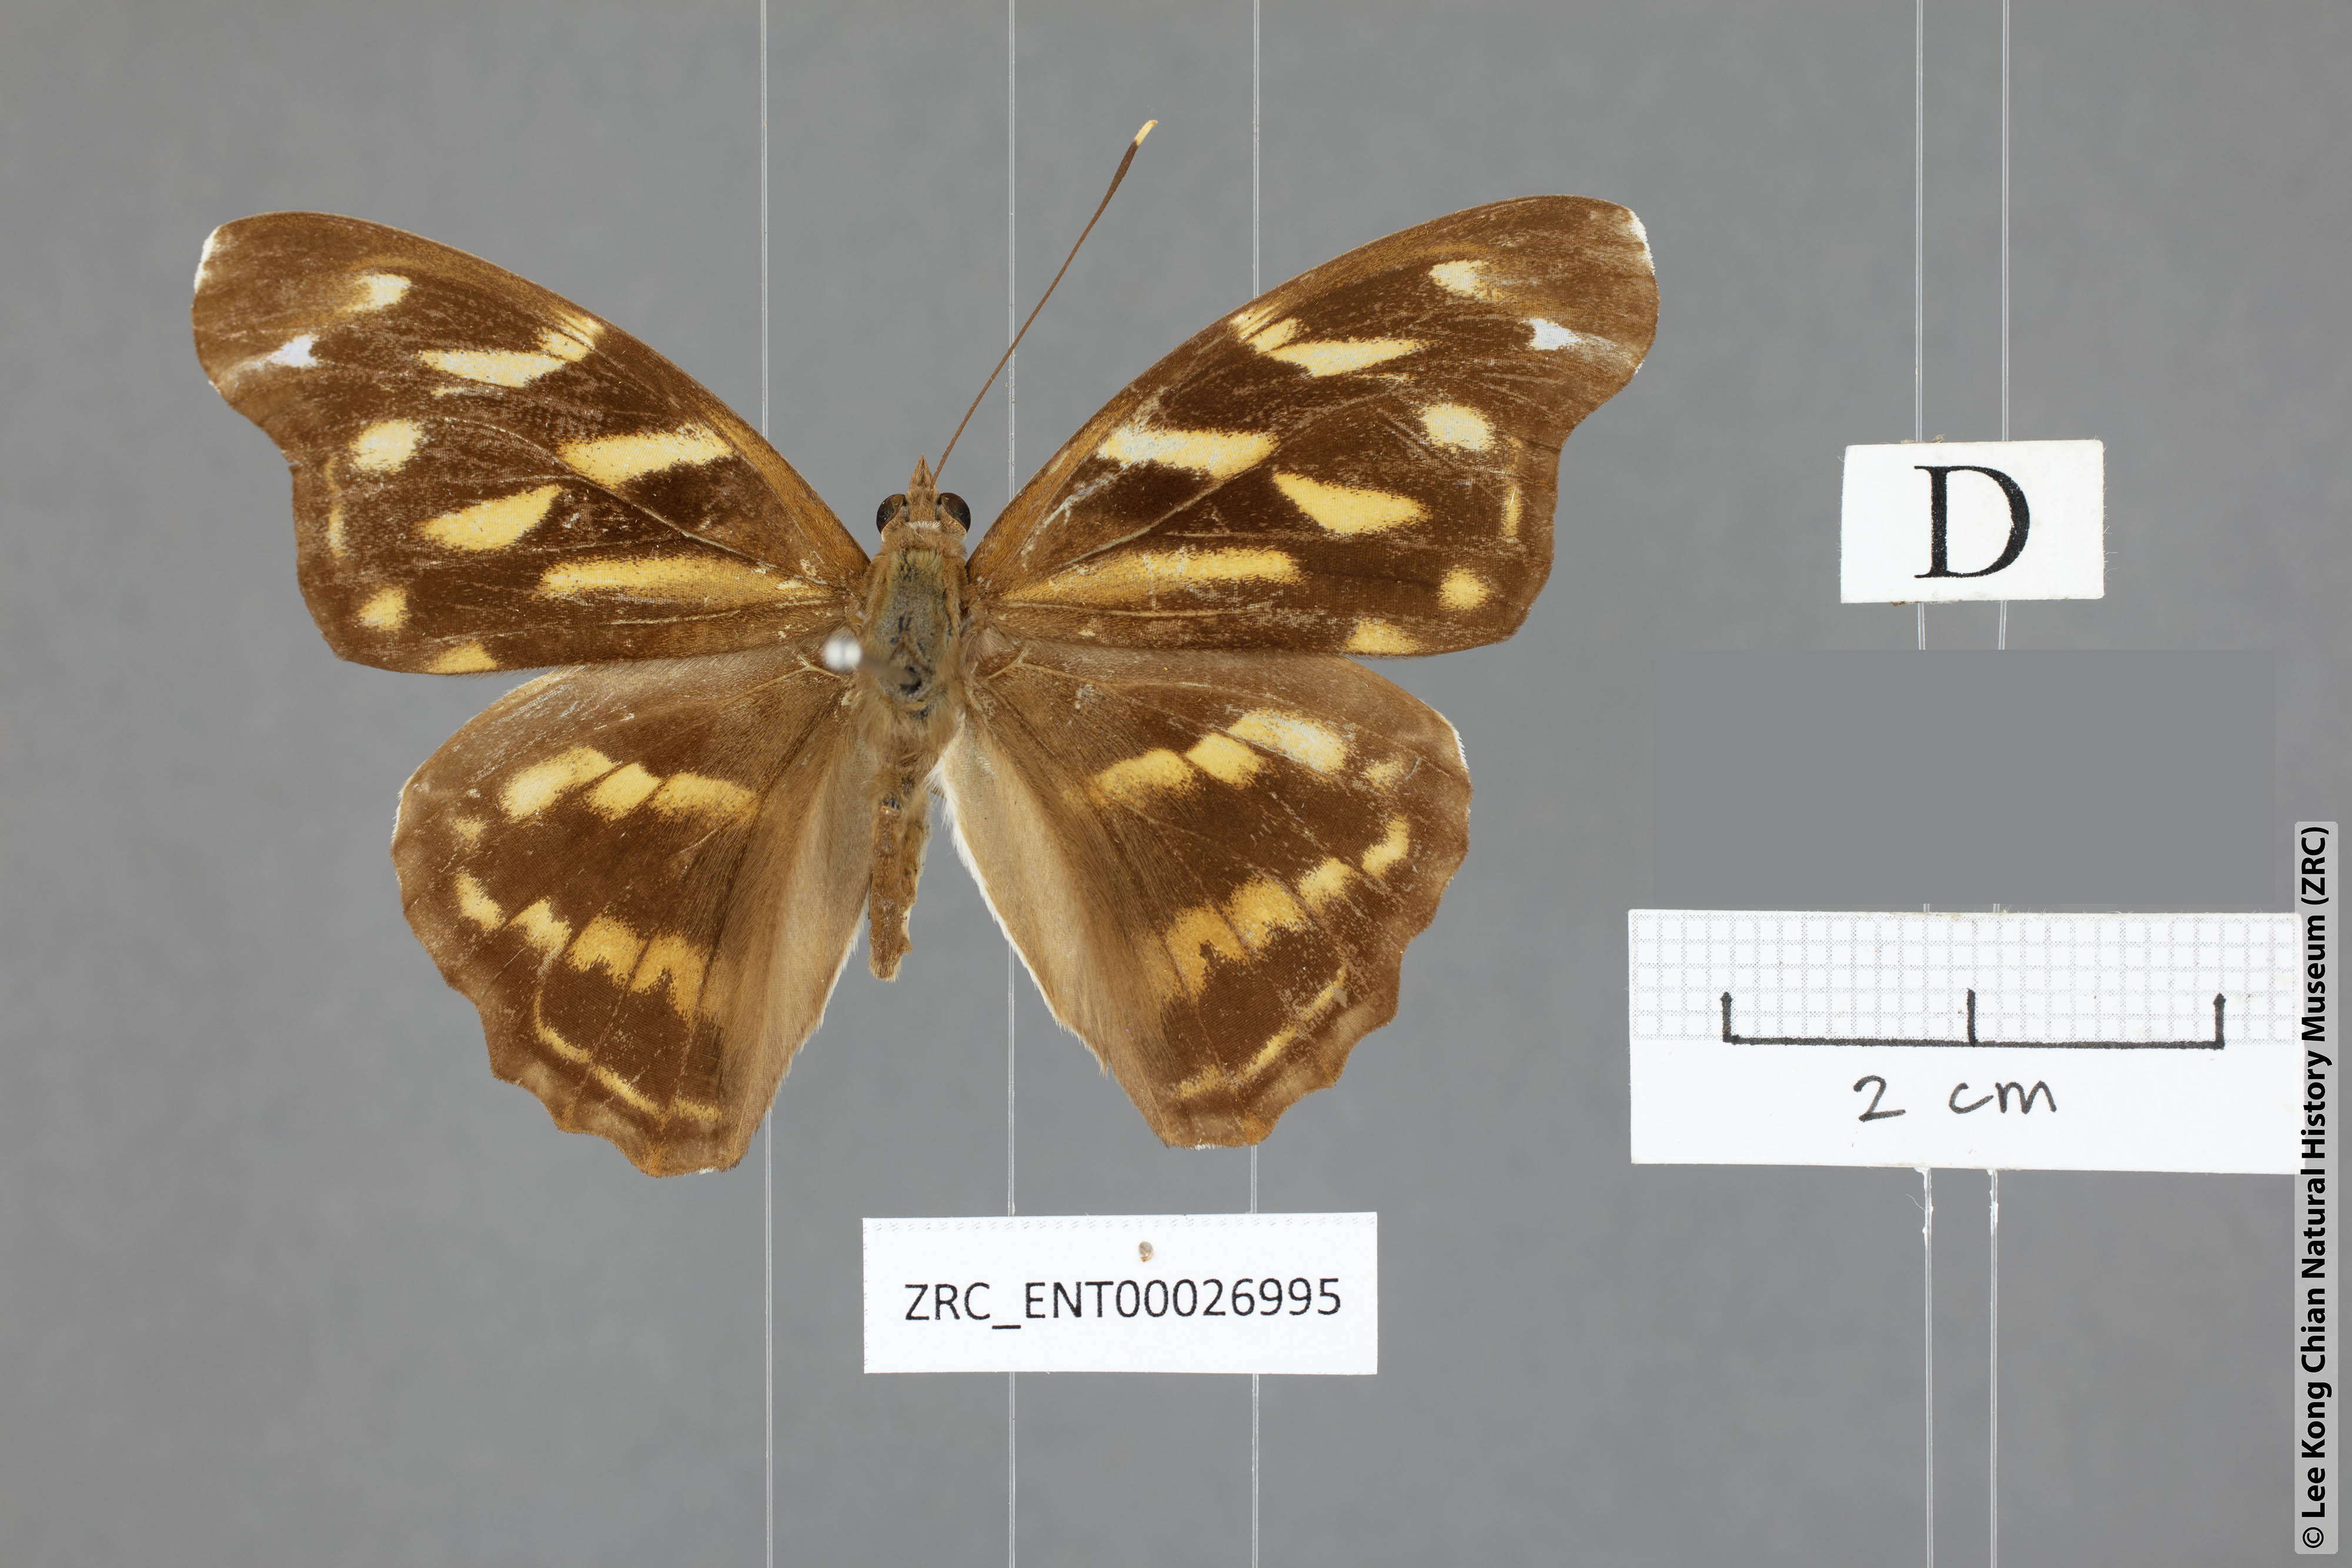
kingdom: Animalia
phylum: Arthropoda
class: Insecta
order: Lepidoptera
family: Nymphalidae
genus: Herona
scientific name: Herona marathus
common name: Yellow pasha
